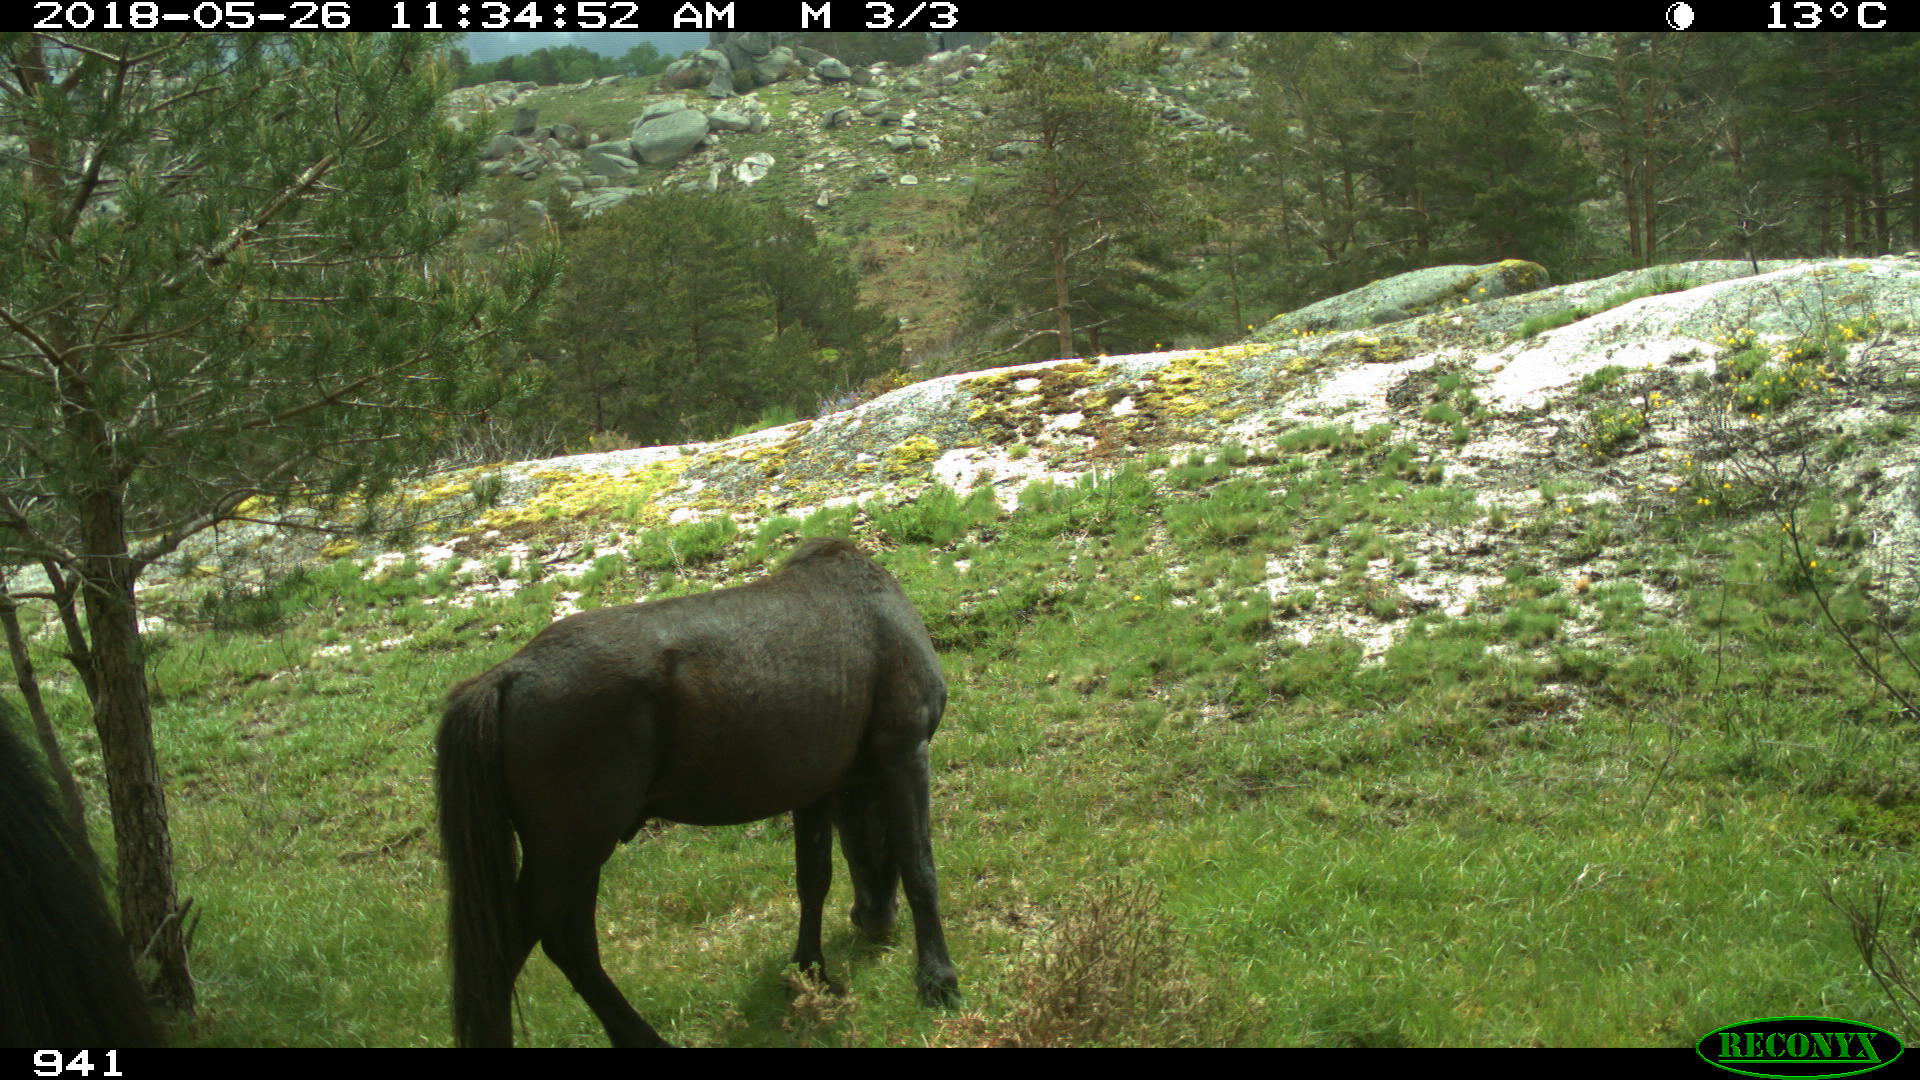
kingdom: Animalia
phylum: Chordata
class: Mammalia
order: Perissodactyla
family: Equidae
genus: Equus
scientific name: Equus caballus
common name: Horse
